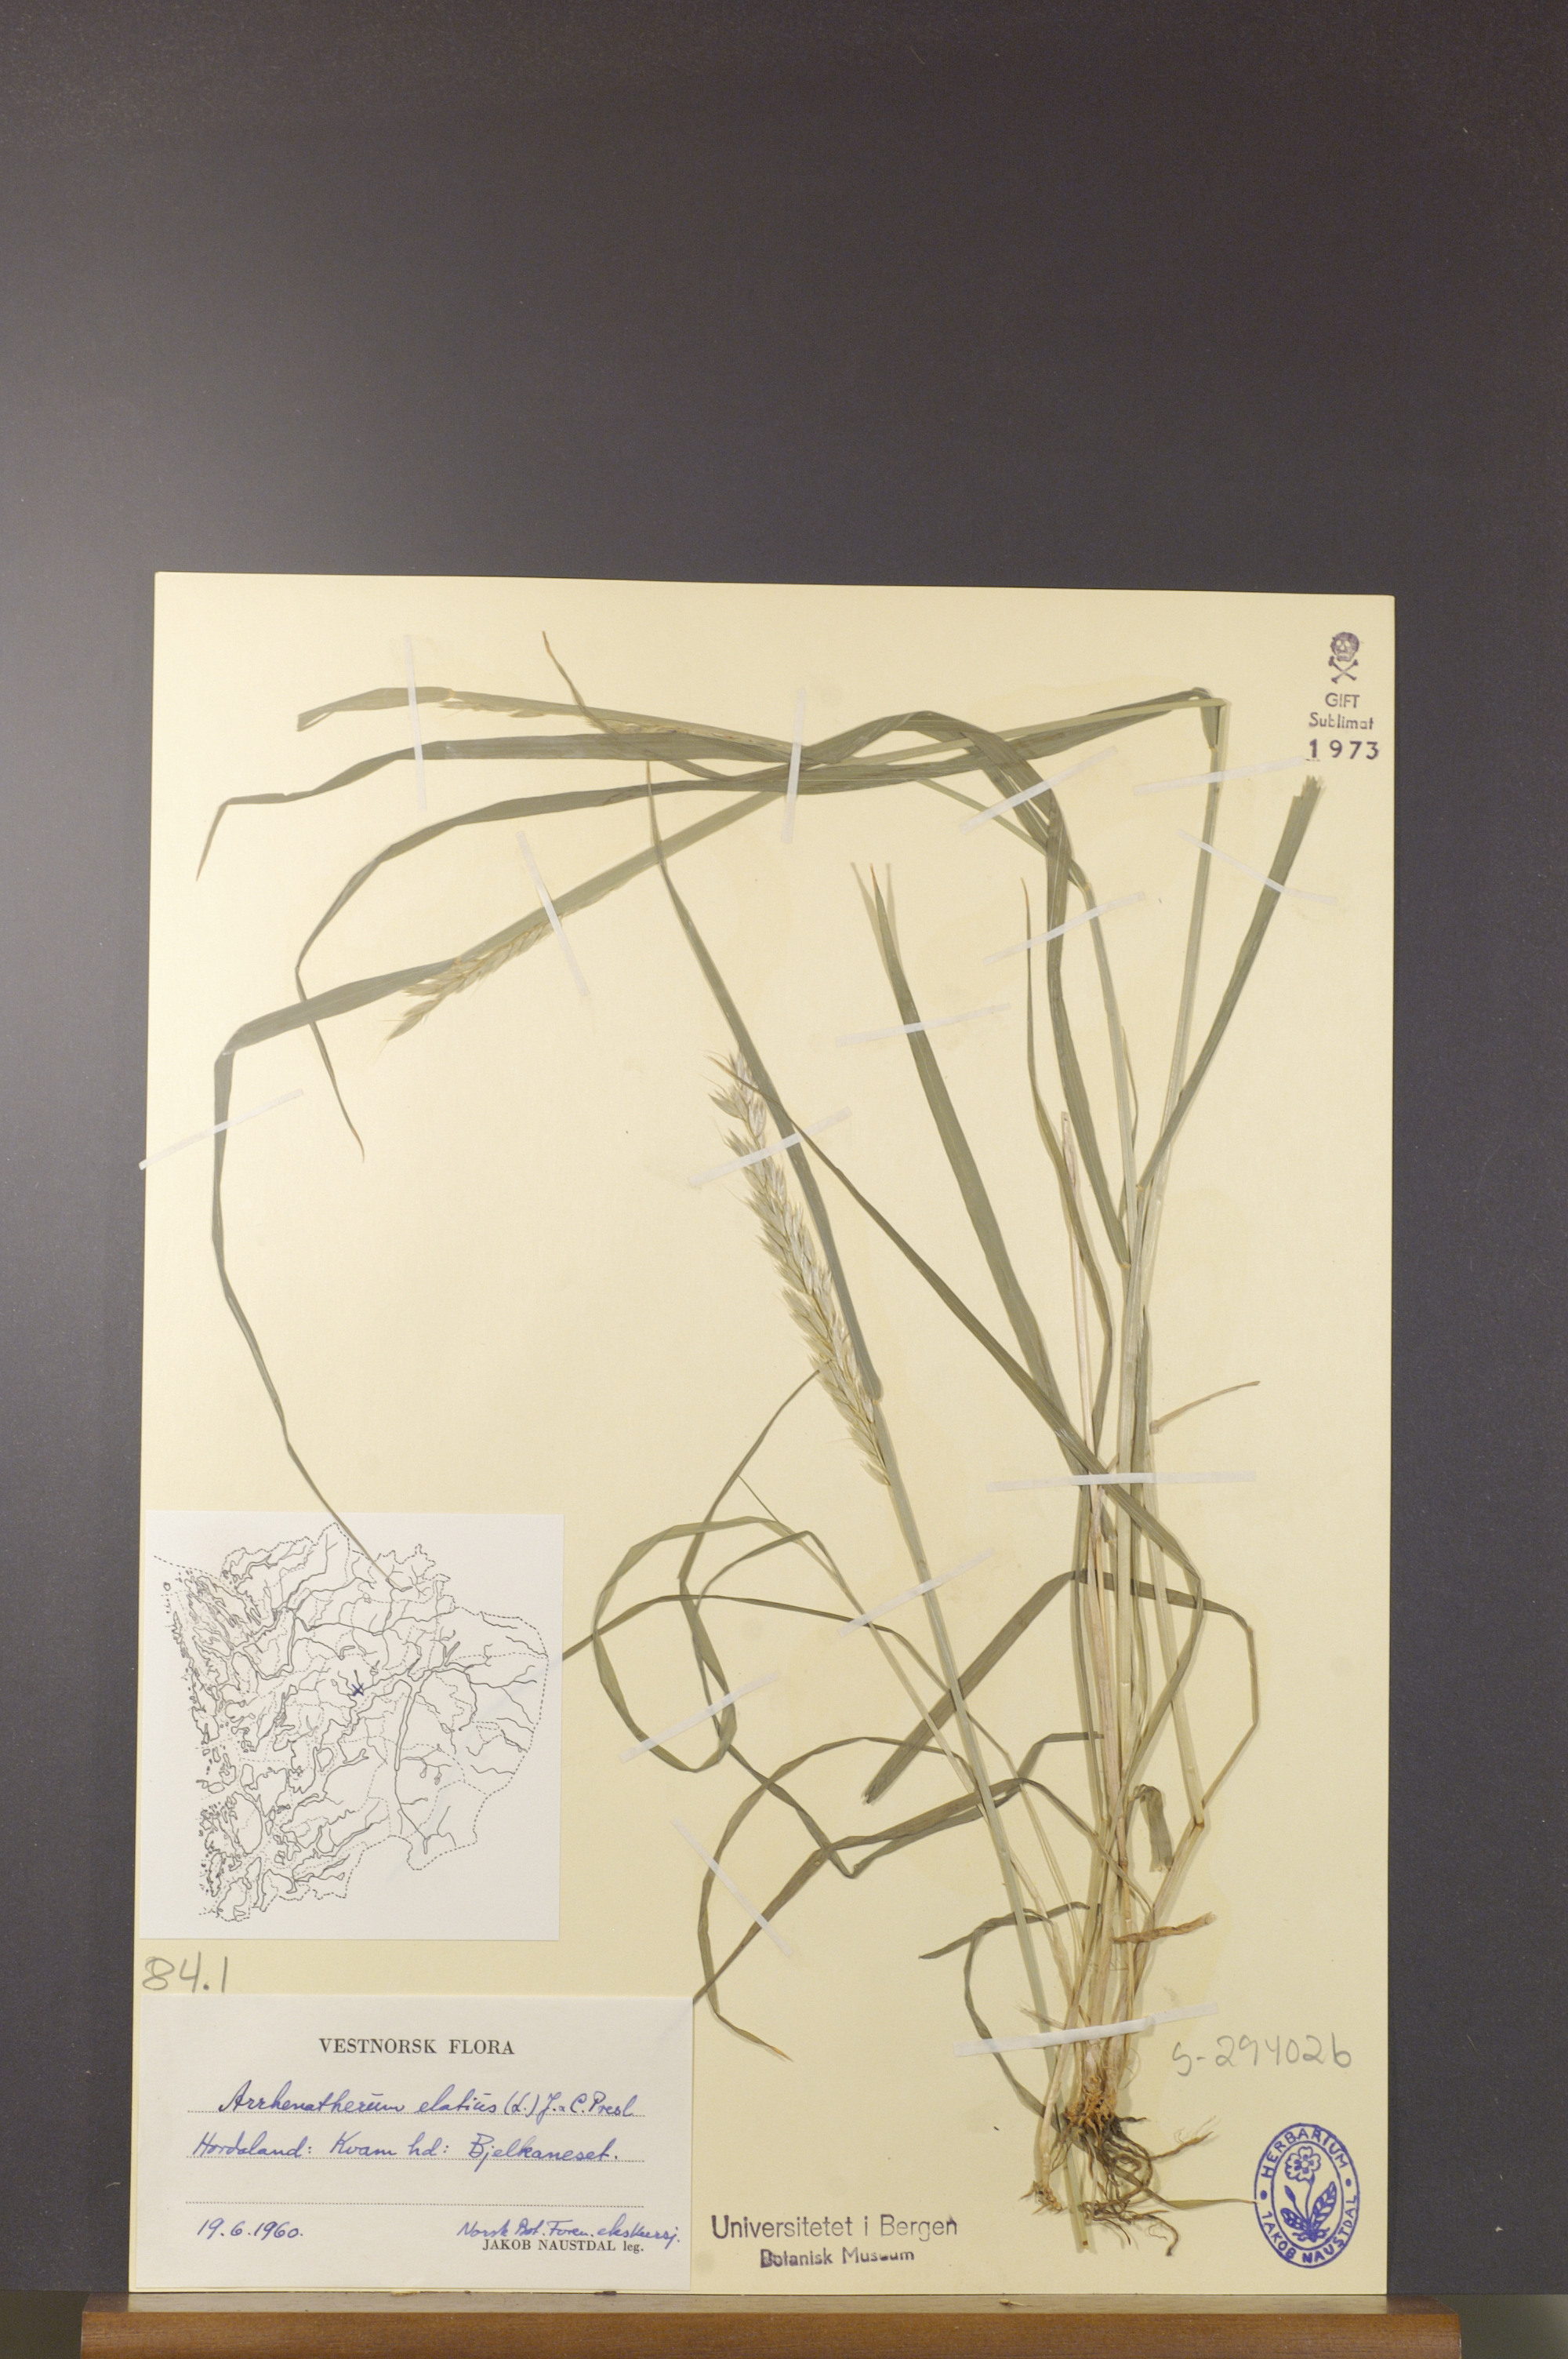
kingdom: Plantae
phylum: Tracheophyta
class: Liliopsida
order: Poales
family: Poaceae
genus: Arrhenatherum
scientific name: Arrhenatherum elatius
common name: Tall oatgrass
